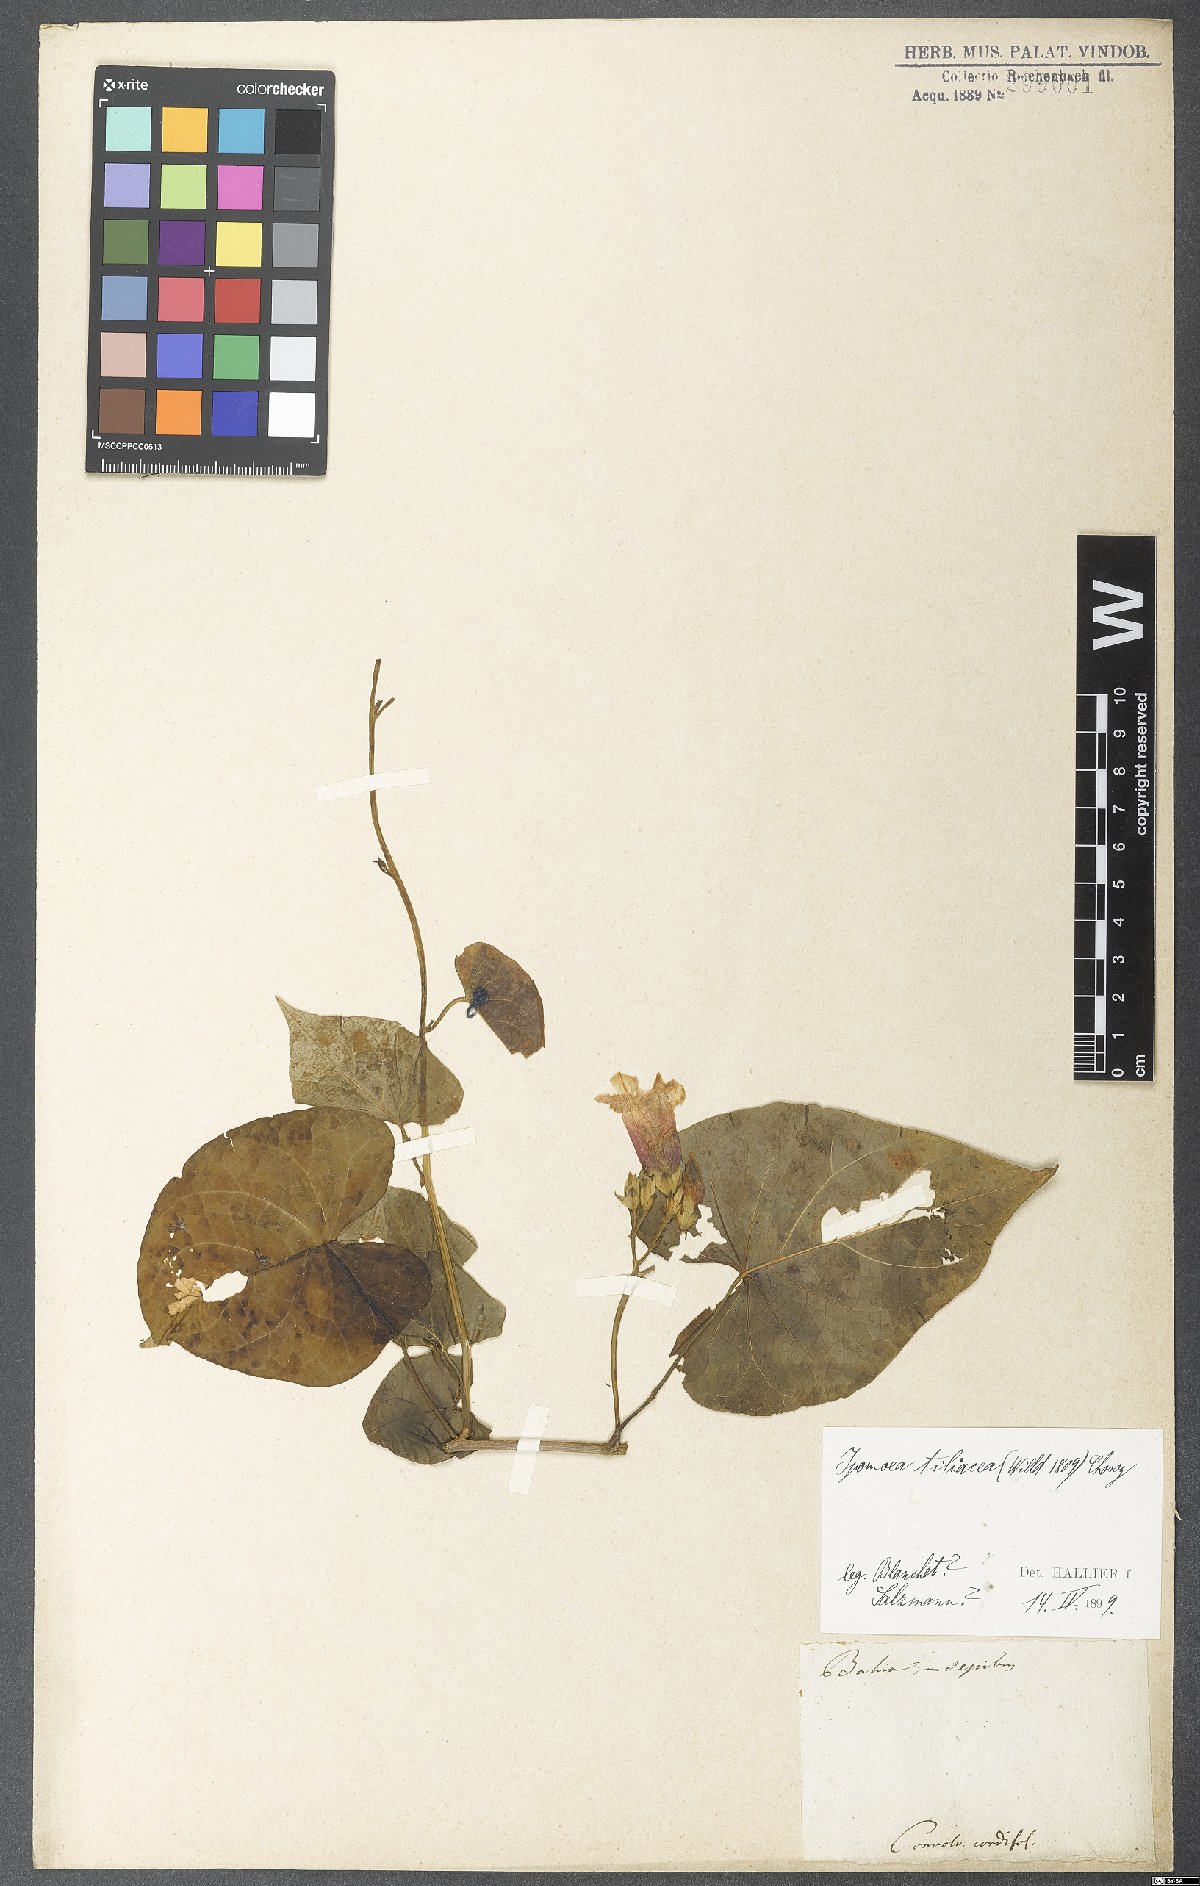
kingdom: Plantae
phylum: Tracheophyta
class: Magnoliopsida
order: Solanales
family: Convolvulaceae
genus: Ipomoea
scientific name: Ipomoea batatas
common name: Sweet-potato
